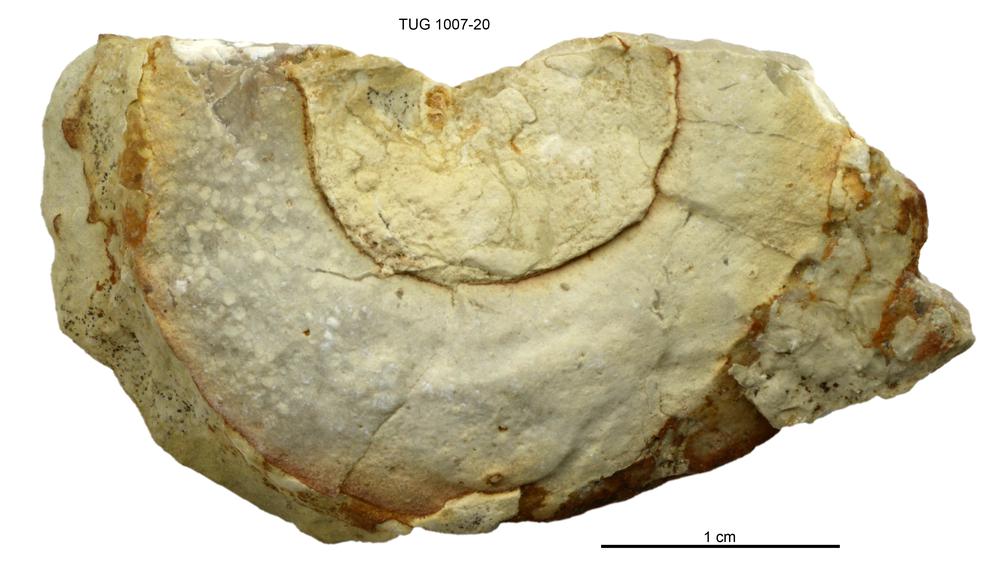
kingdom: Animalia
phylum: Mollusca
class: Gastropoda
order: Pleurotomariida
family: Eotomariidae
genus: Liospira
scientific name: Liospira Raphistoma wesenbergense
